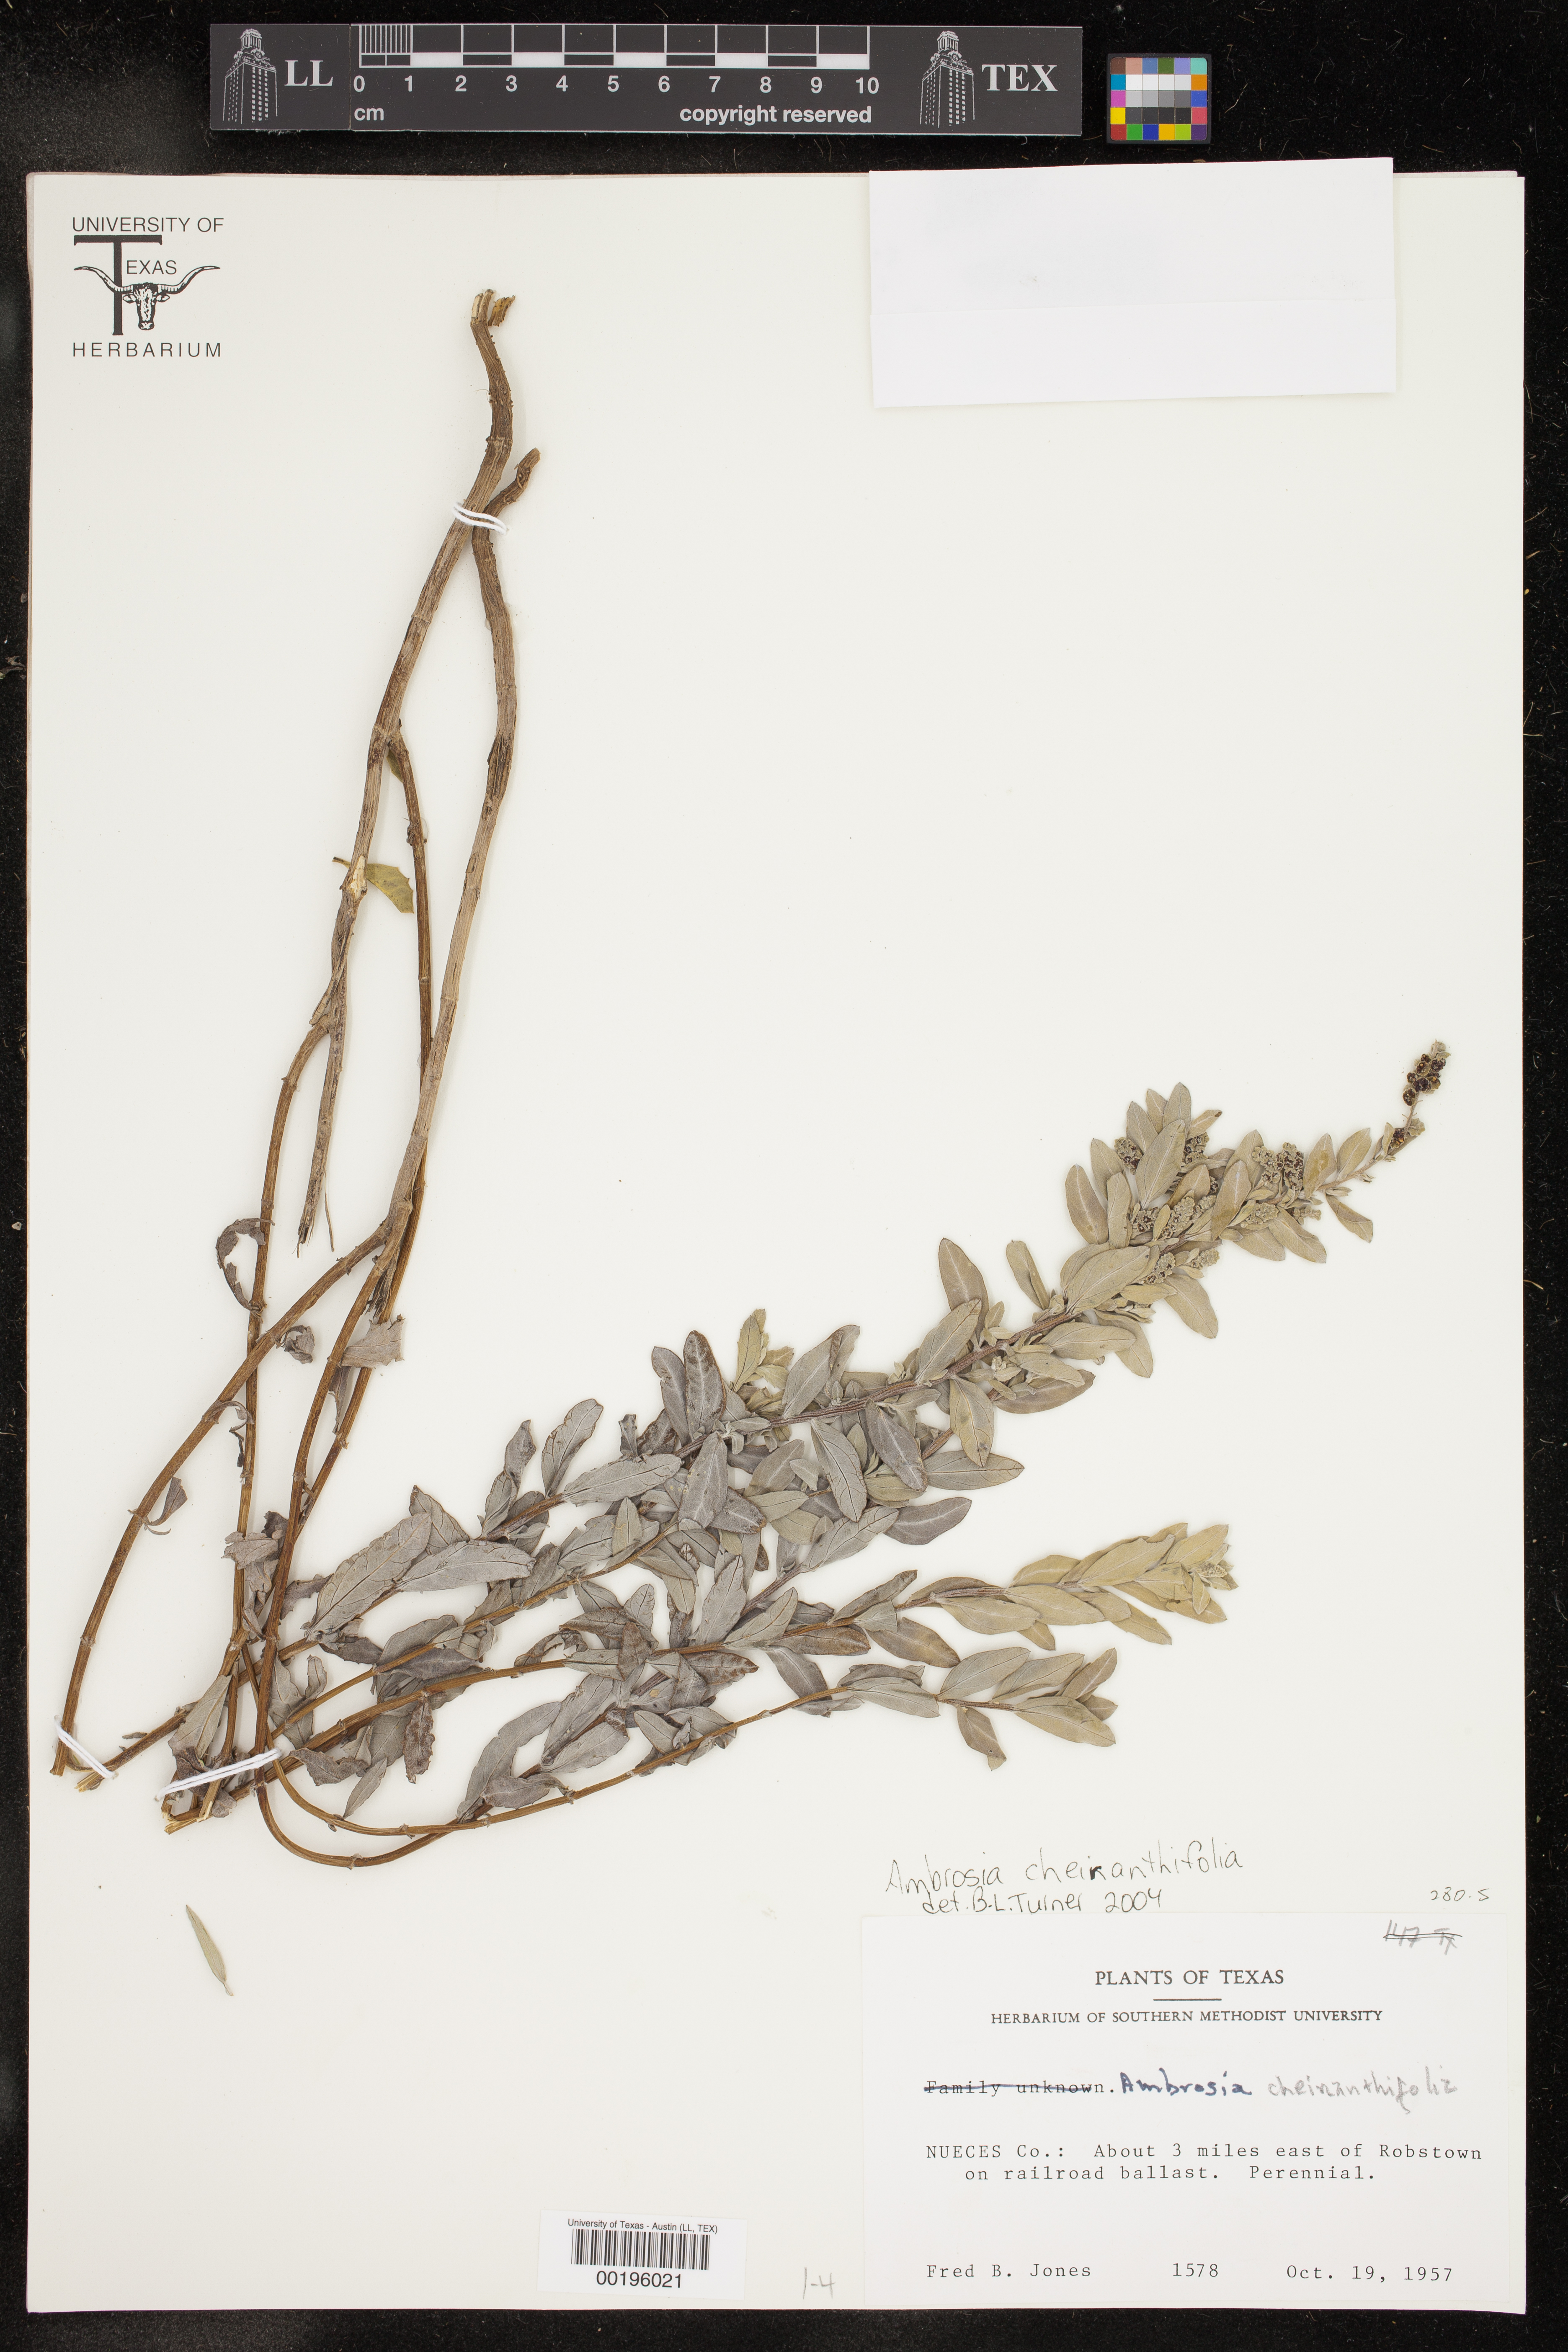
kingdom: Plantae
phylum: Tracheophyta
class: Magnoliopsida
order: Asterales
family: Asteraceae
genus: Ambrosia
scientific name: Ambrosia cheiranthifolia
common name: South texas ambrosia
